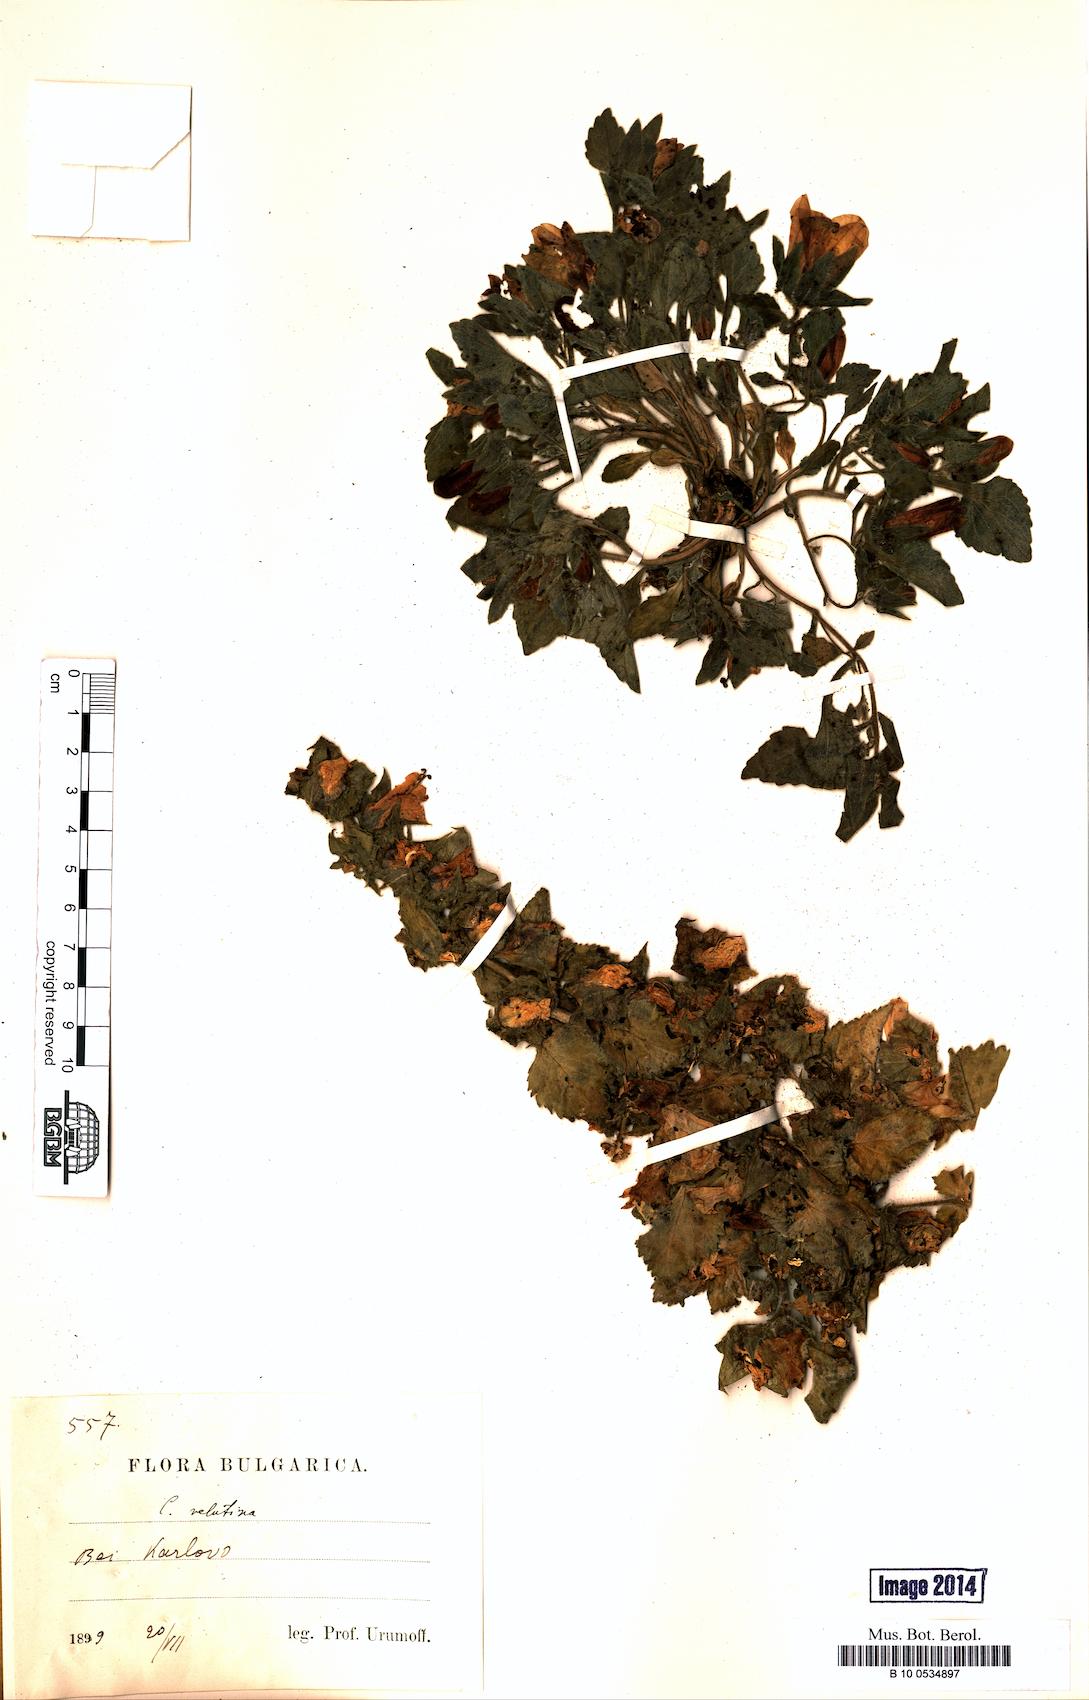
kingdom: Plantae
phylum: Tracheophyta
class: Magnoliopsida
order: Asterales
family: Campanulaceae
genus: Campanula
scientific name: Campanula lanata
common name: Woolly bellflower
